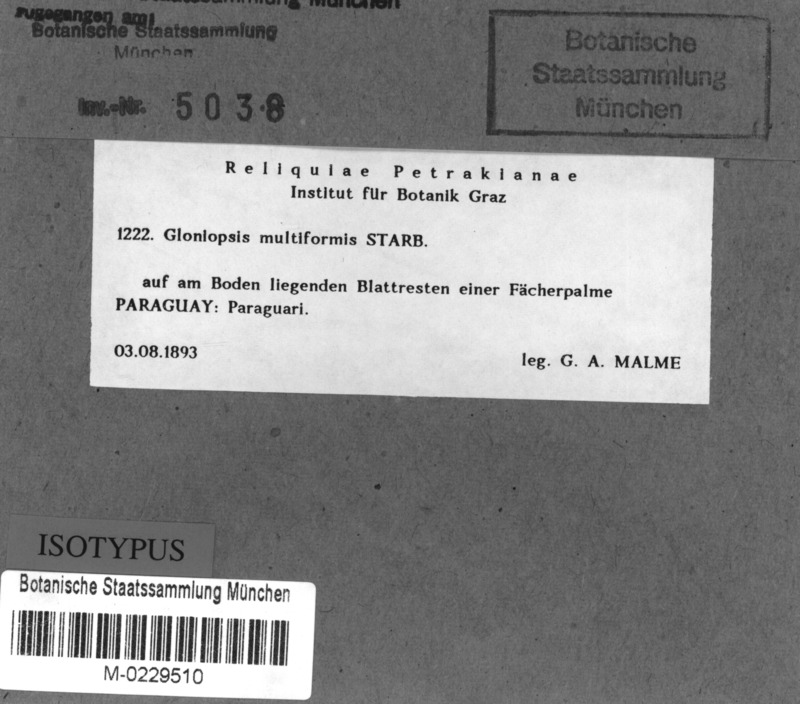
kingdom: Fungi
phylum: Ascomycota
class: Dothideomycetes
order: Hysteriales
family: Hysteriaceae
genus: Gloniopsis
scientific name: Gloniopsis multiformis
